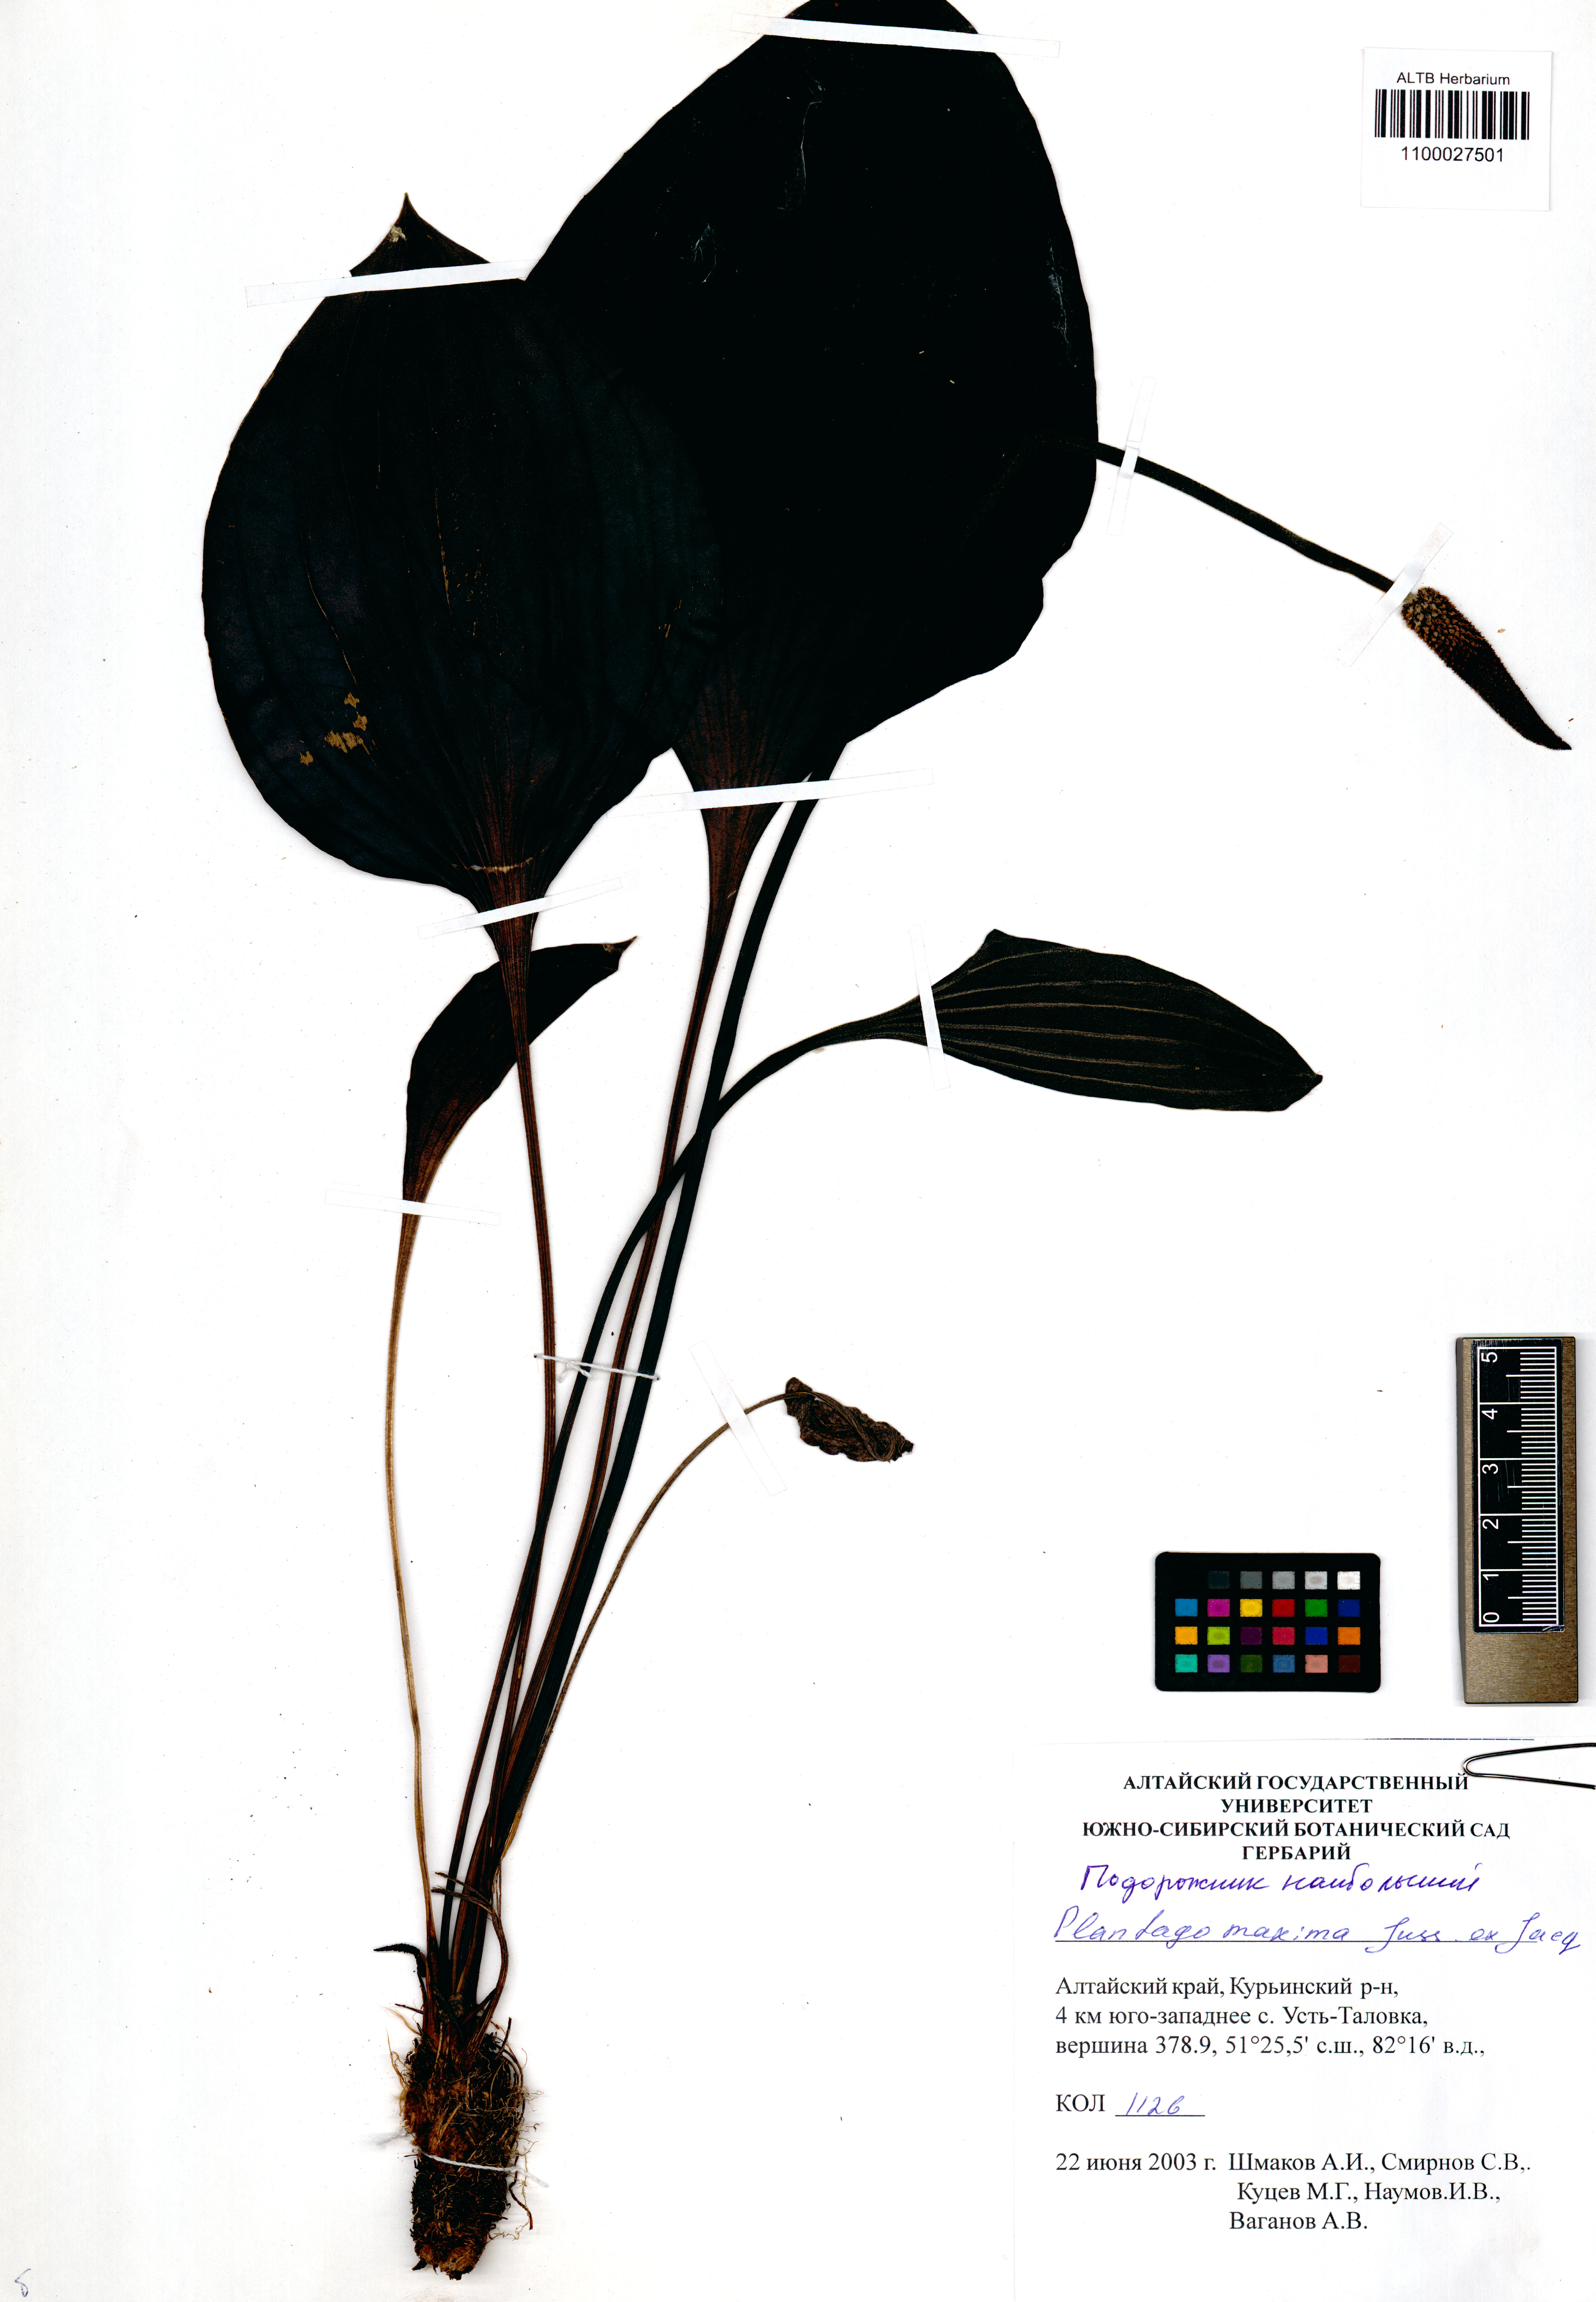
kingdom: Plantae
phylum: Tracheophyta
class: Magnoliopsida
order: Lamiales
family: Plantaginaceae
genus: Plantago
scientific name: Plantago maxima
